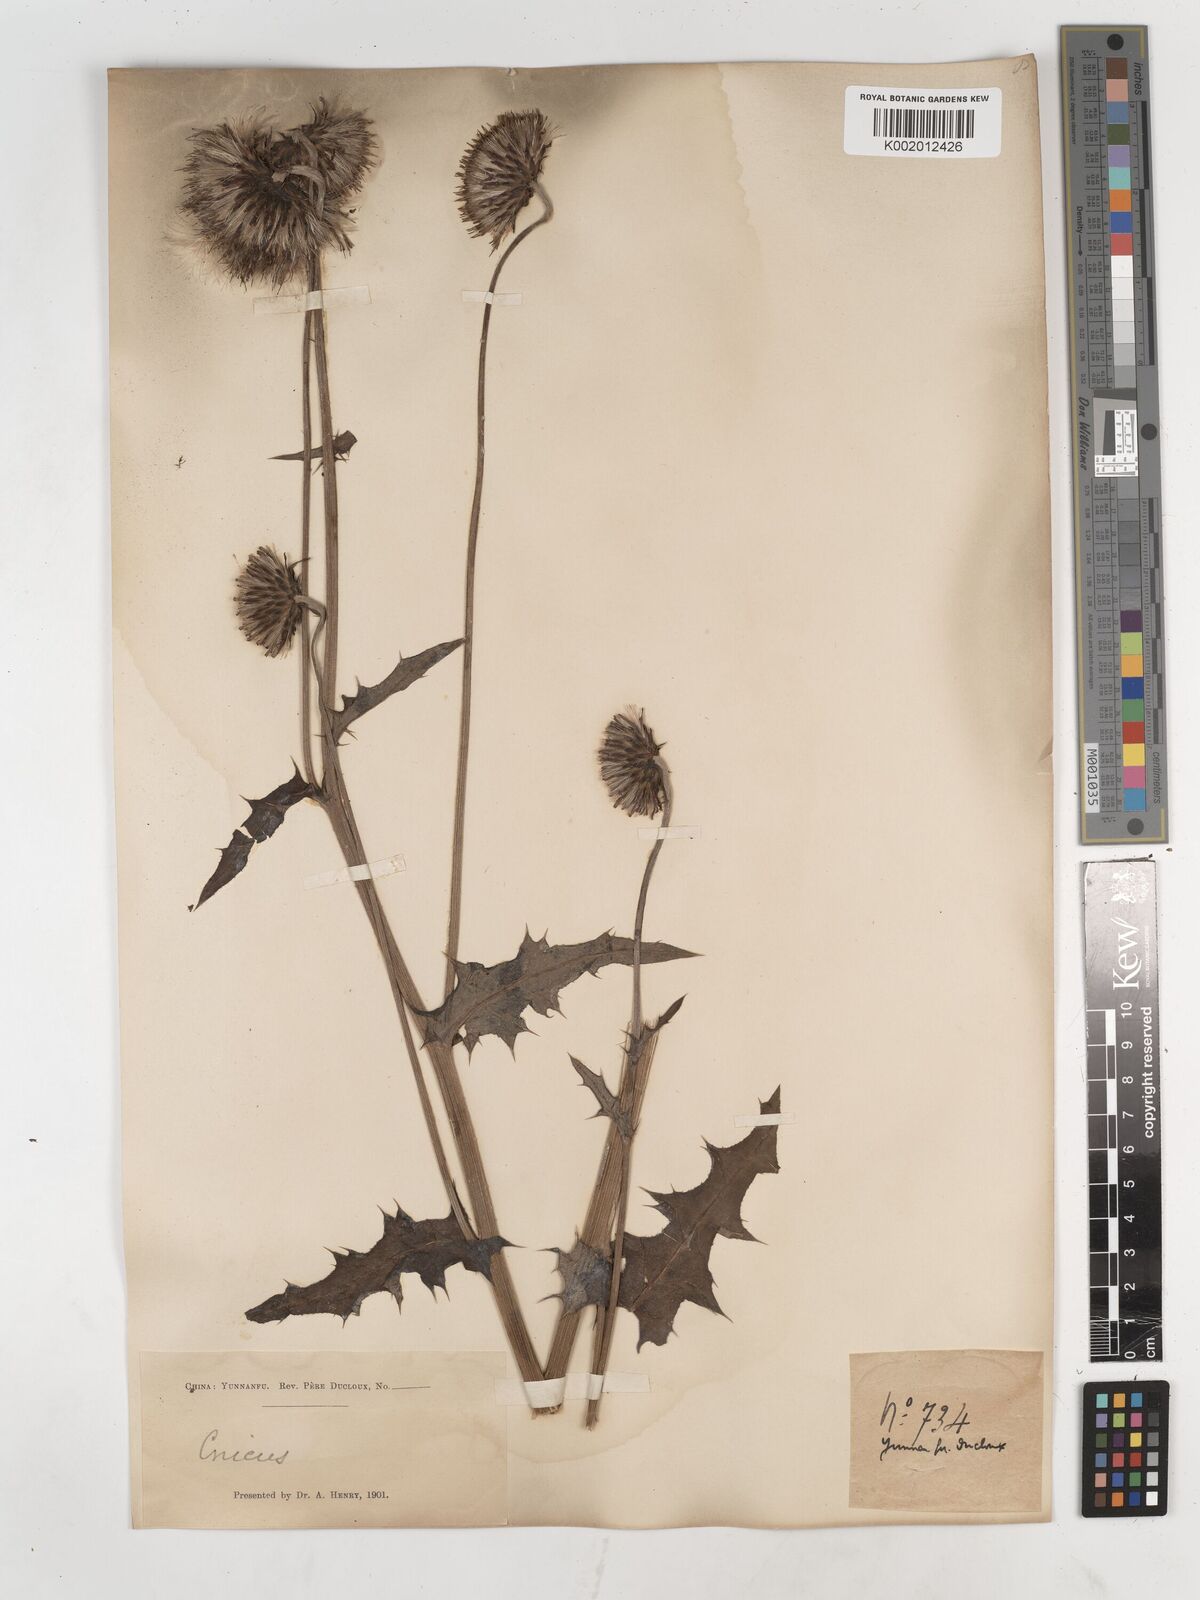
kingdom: Plantae
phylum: Tracheophyta
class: Magnoliopsida
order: Asterales
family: Asteraceae
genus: Cirsium
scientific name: Cirsium
